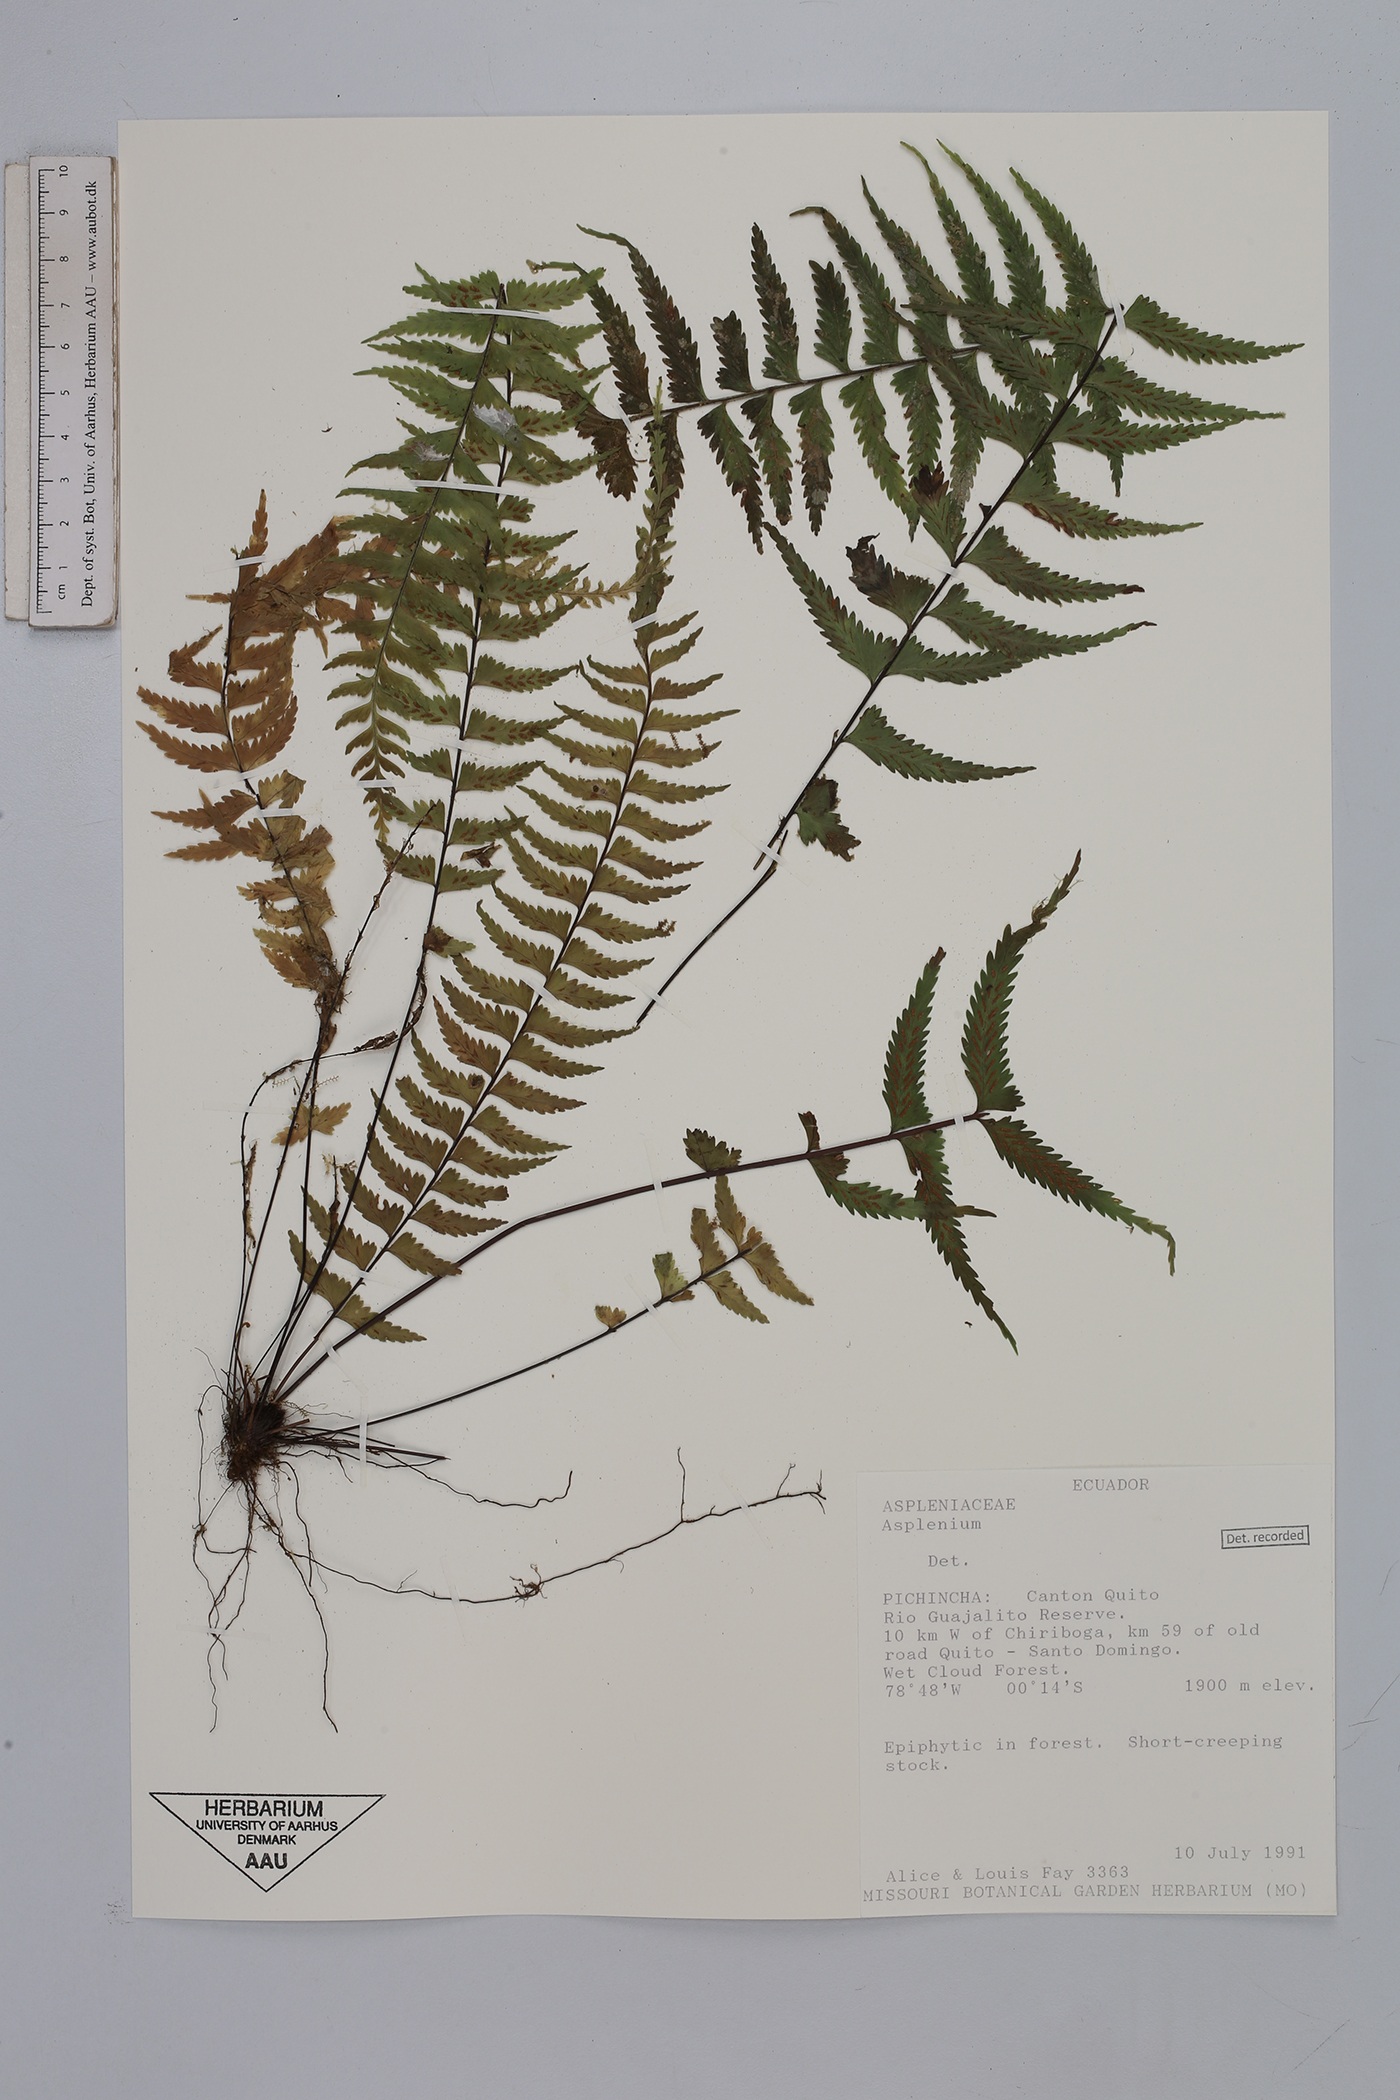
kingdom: Plantae
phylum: Tracheophyta
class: Polypodiopsida
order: Polypodiales
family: Aspleniaceae
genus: Asplenium
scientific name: Asplenium harpeodes
